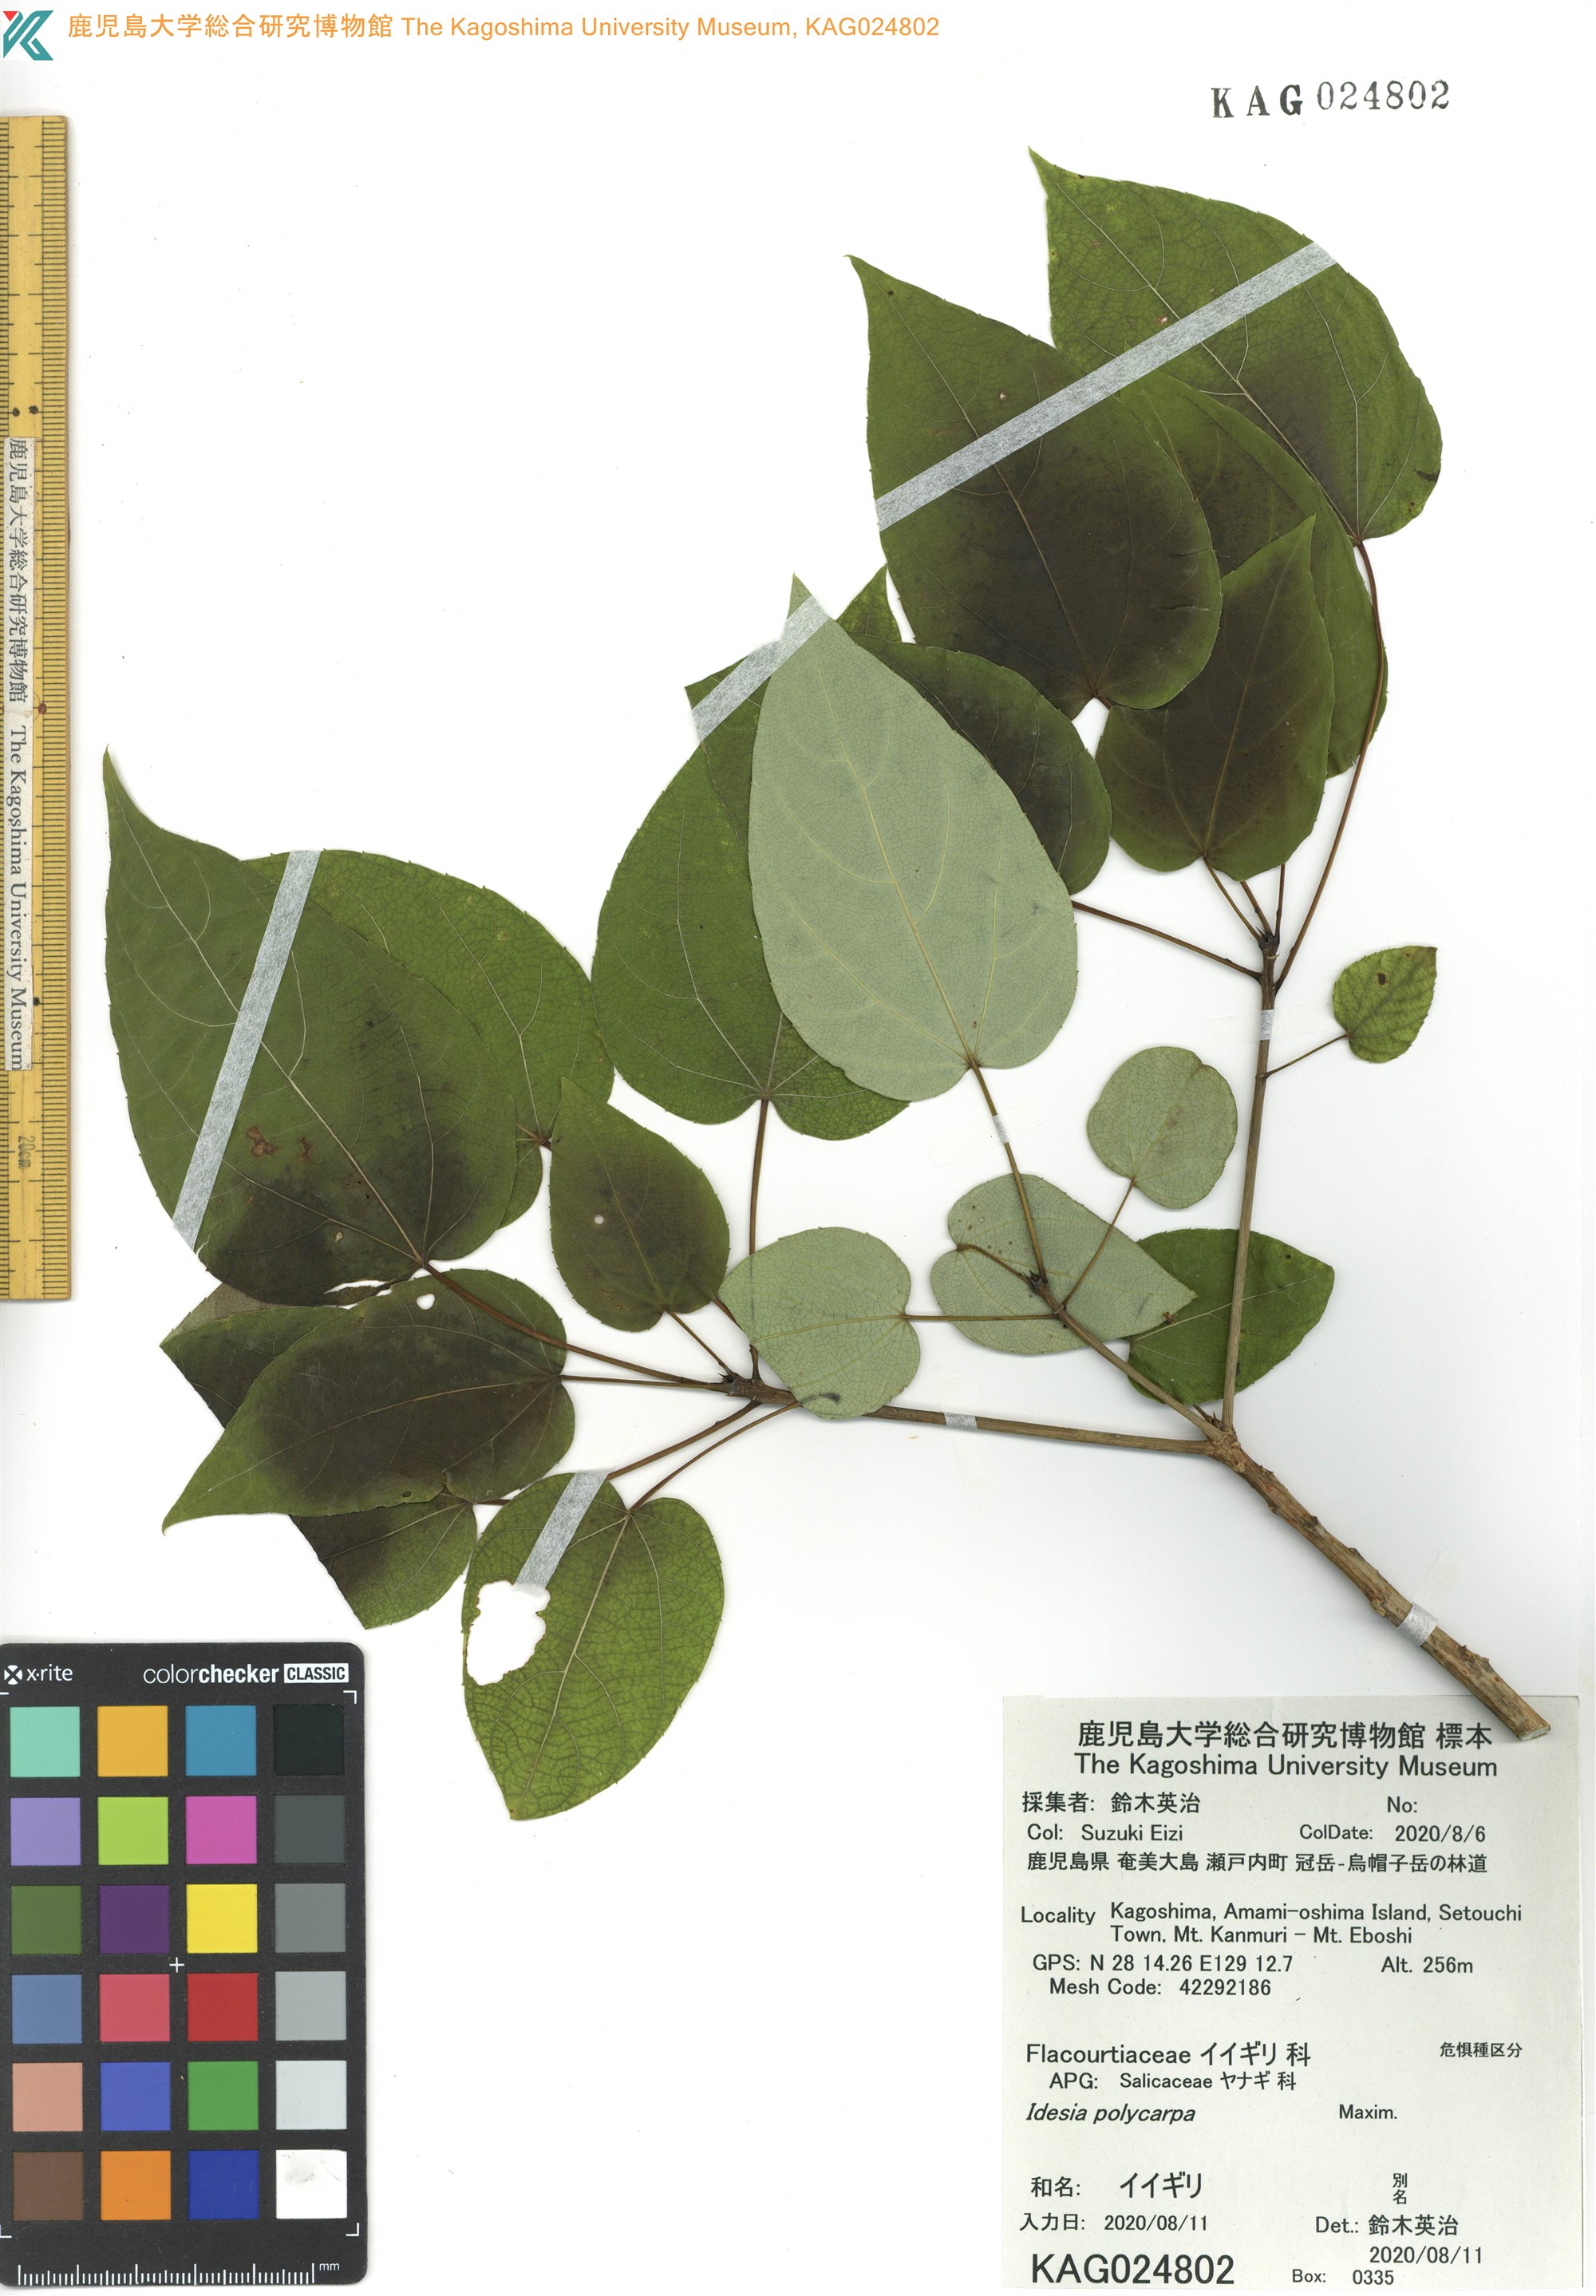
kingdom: Plantae
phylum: Tracheophyta
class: Magnoliopsida
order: Malpighiales
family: Salicaceae
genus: Idesia
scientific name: Idesia polycarpa
